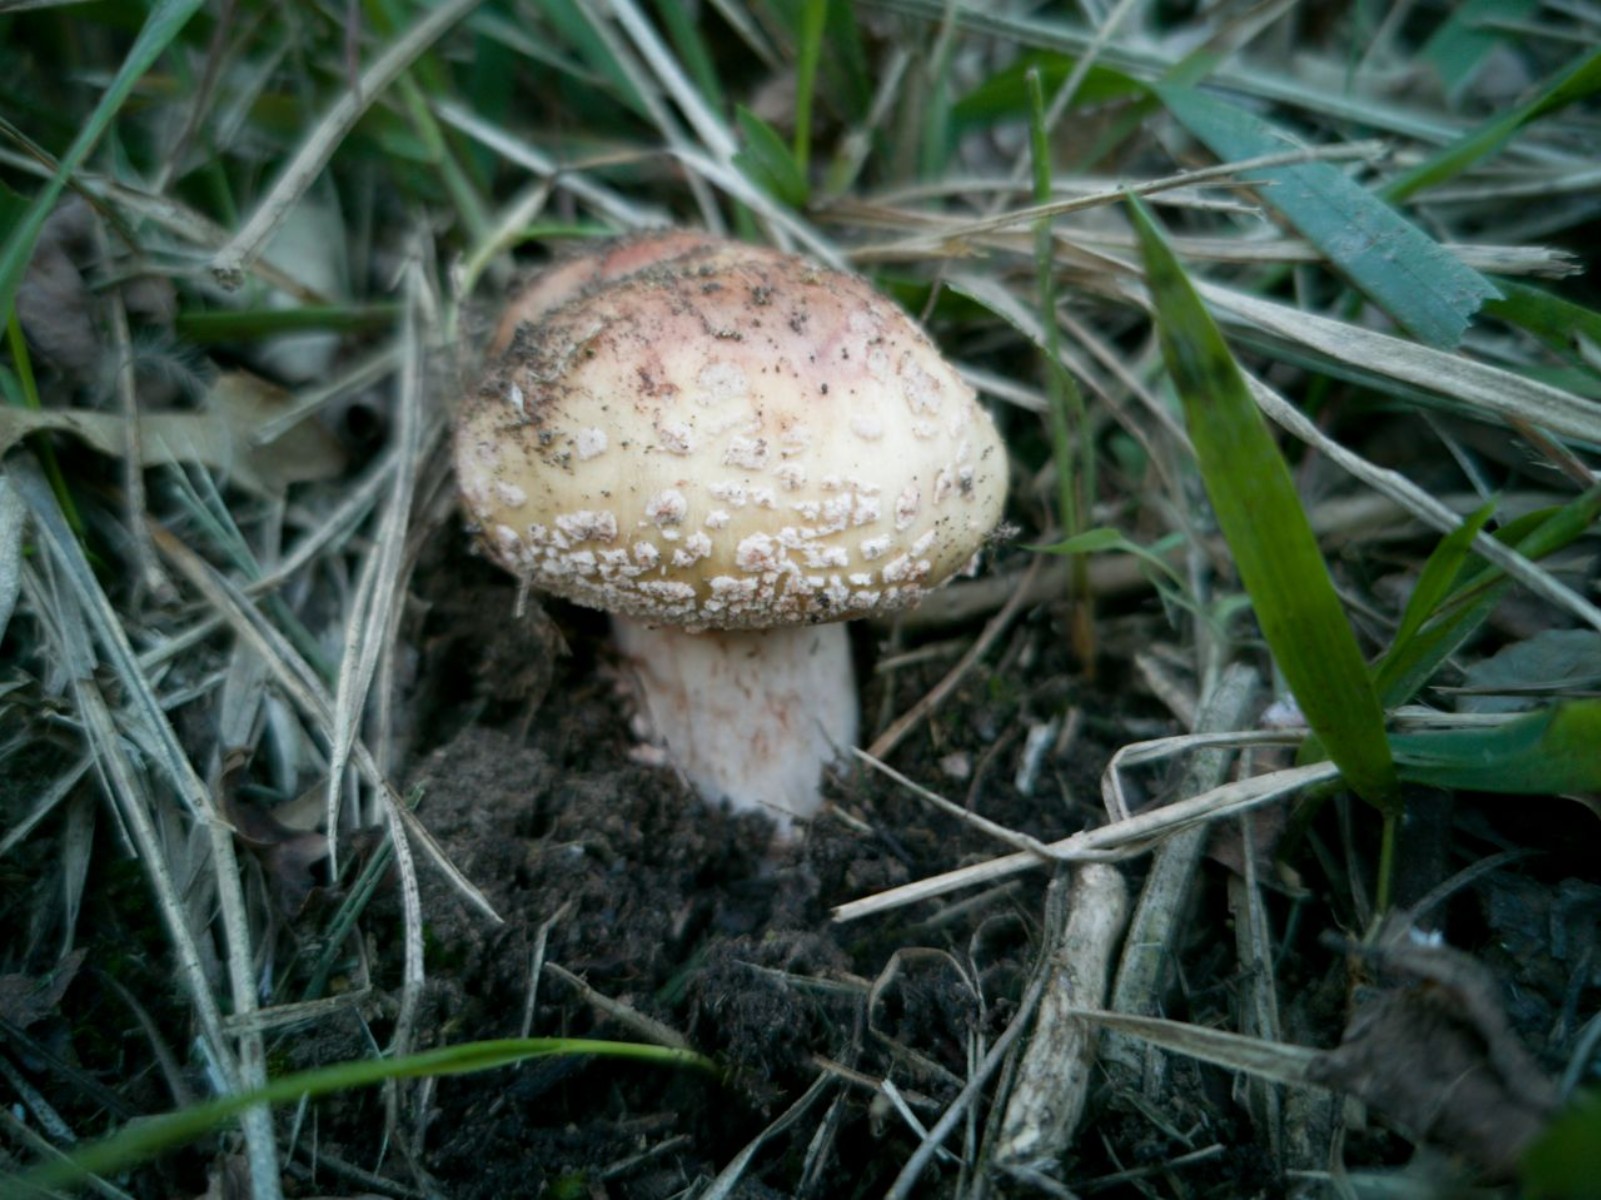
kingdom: Fungi
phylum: Basidiomycota
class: Agaricomycetes
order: Agaricales
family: Amanitaceae
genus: Amanita
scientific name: Amanita rubescens
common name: rødmende fluesvamp
